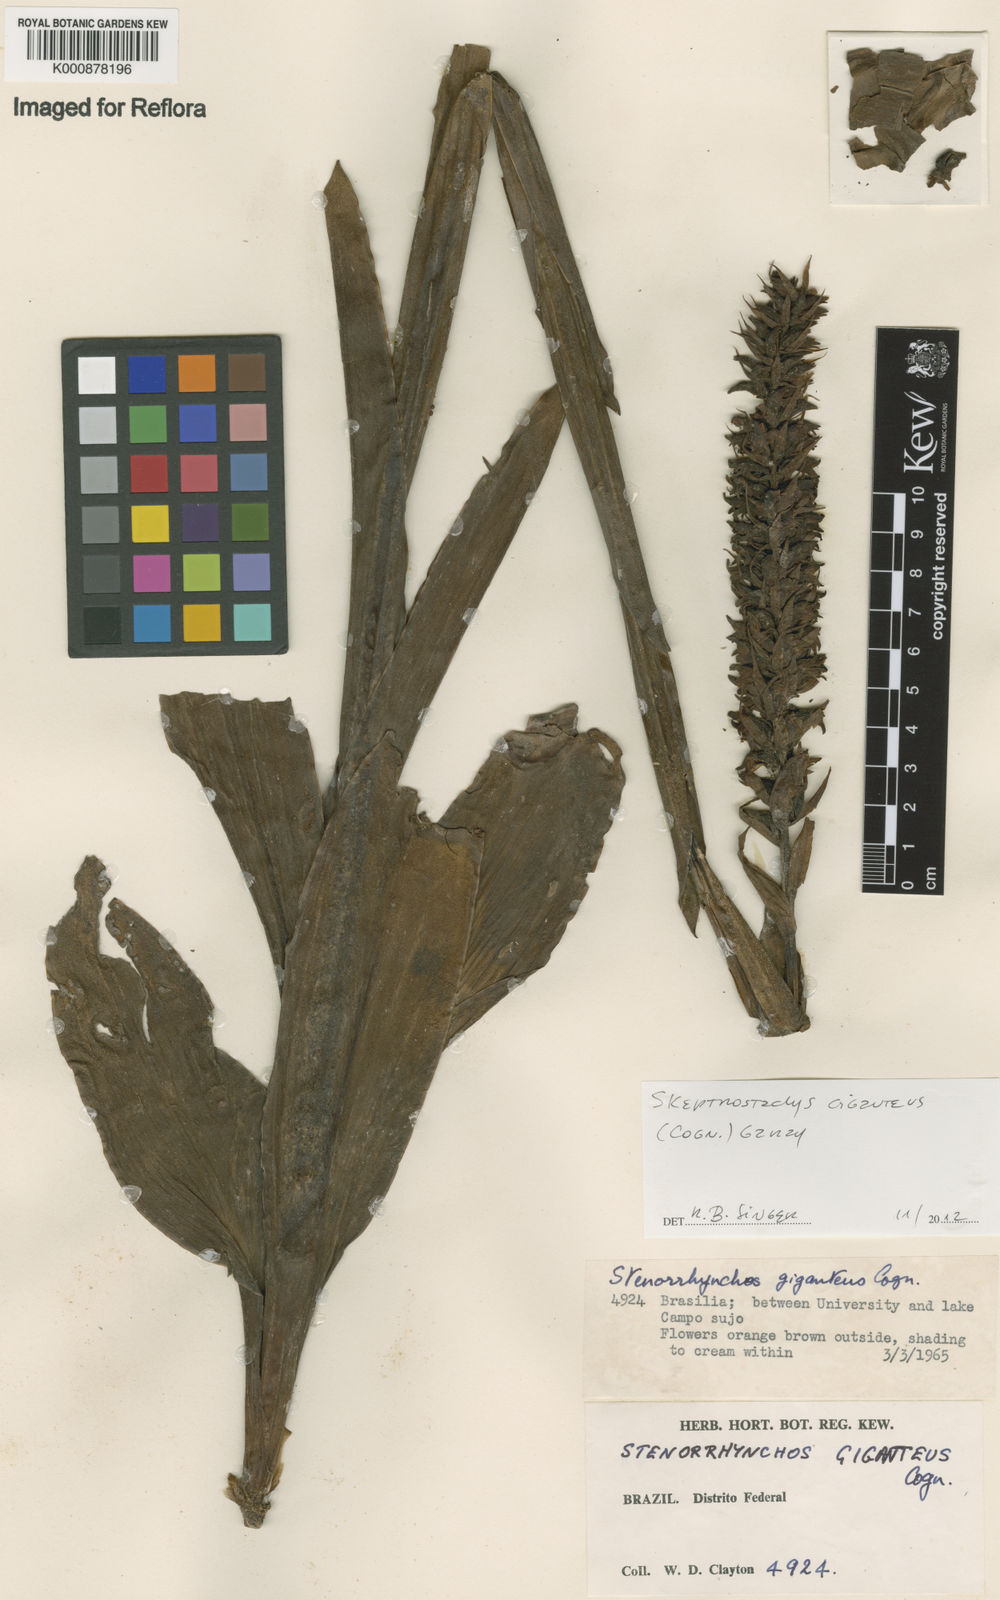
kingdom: Plantae
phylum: Tracheophyta
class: Liliopsida
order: Asparagales
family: Orchidaceae
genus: Skeptrostachys
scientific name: Skeptrostachys gigantea
